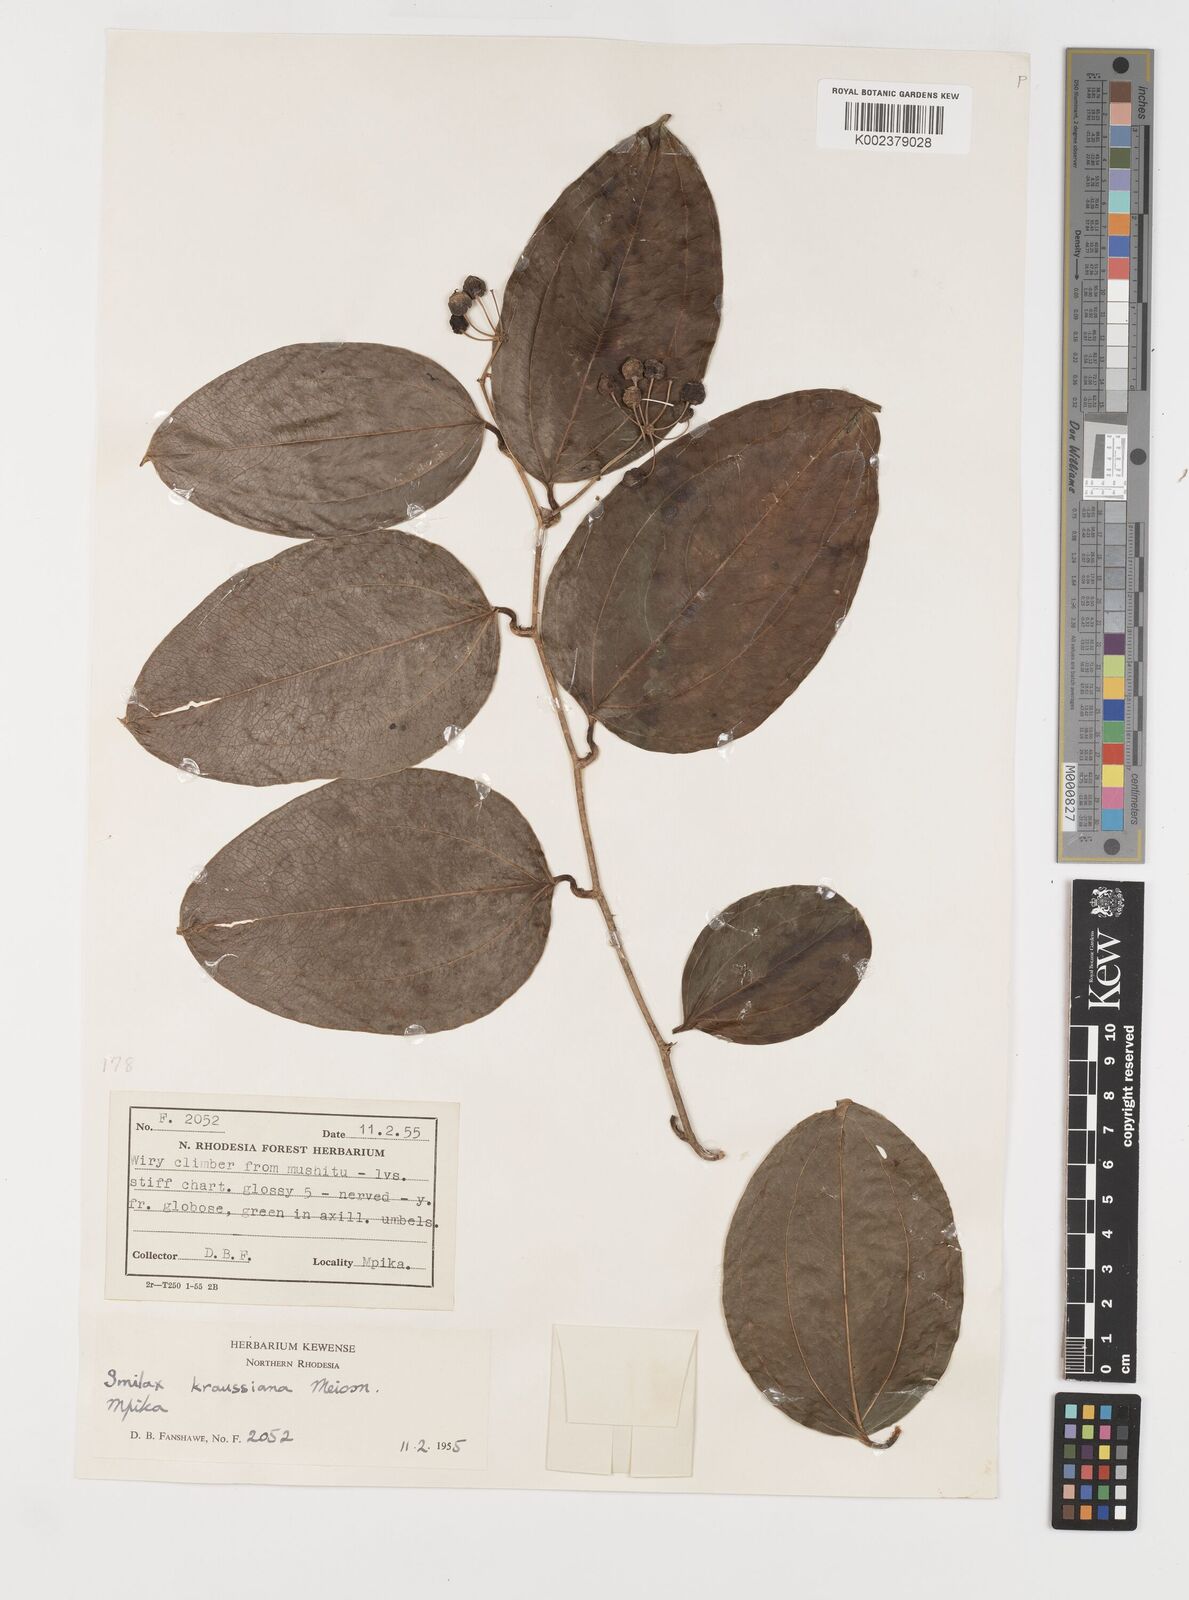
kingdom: Plantae
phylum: Tracheophyta
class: Liliopsida
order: Liliales
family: Smilacaceae
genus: Smilax
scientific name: Smilax anceps
